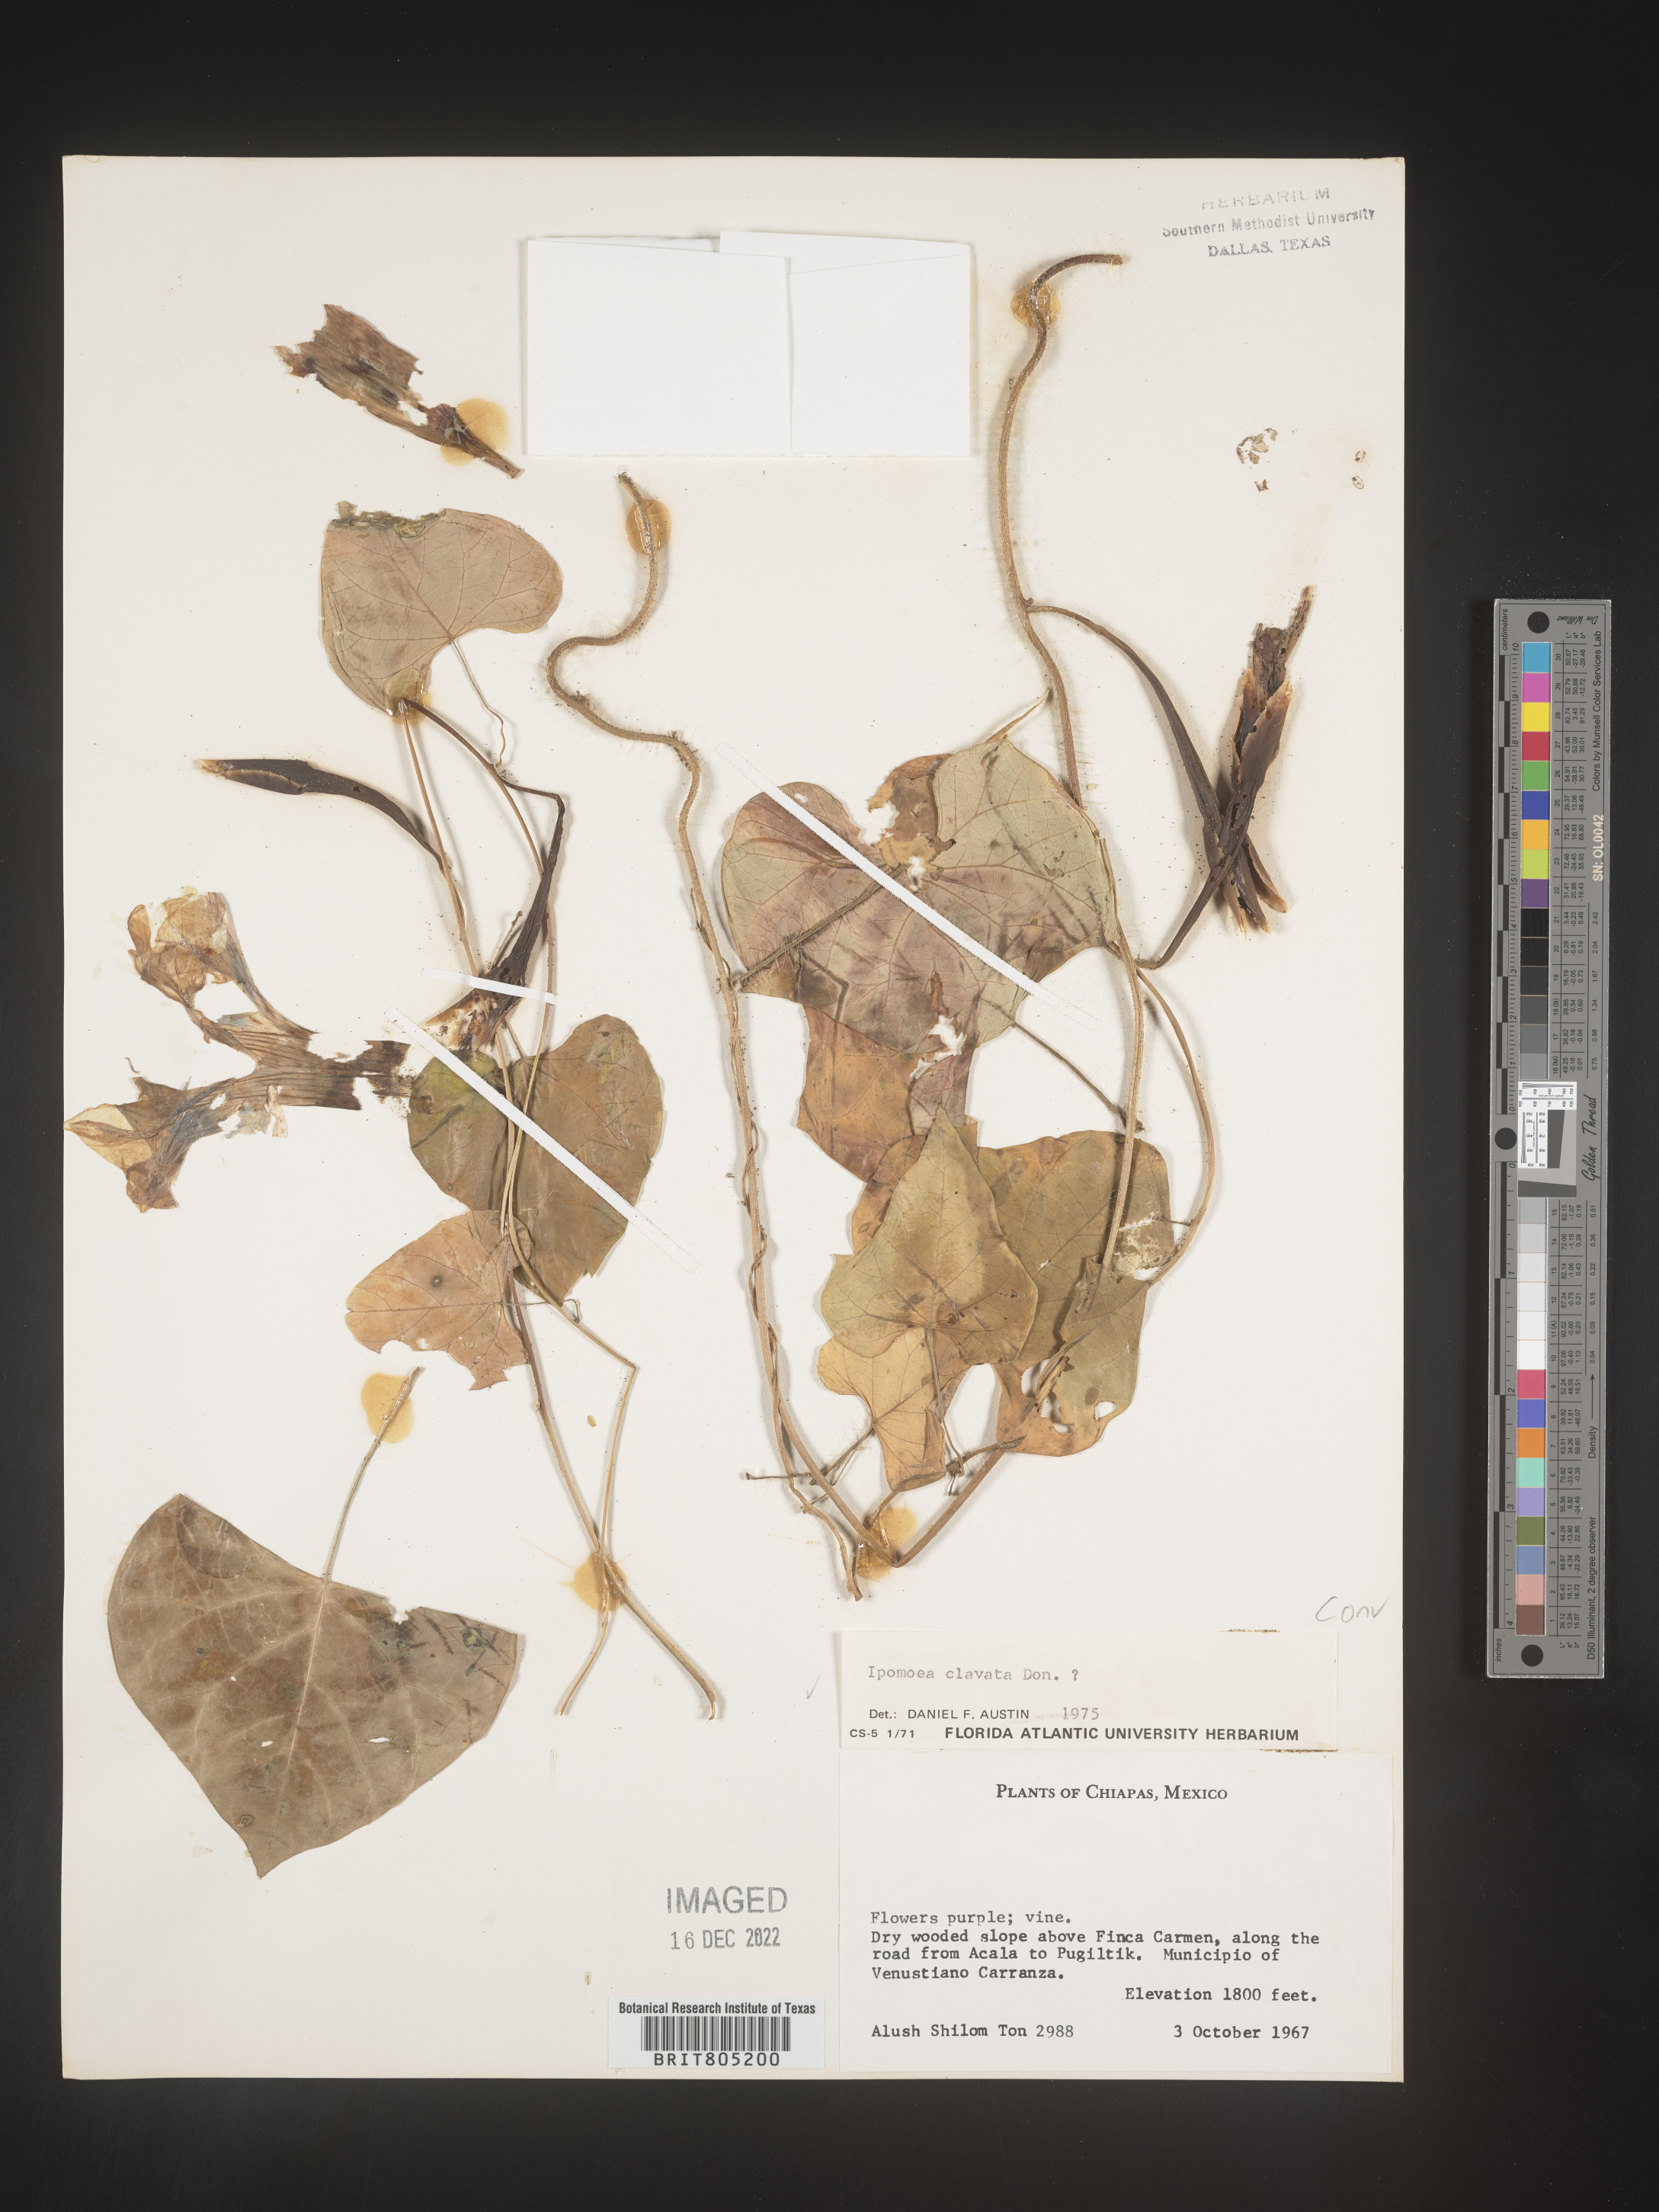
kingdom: Plantae
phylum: Tracheophyta
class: Magnoliopsida
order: Solanales
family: Convolvulaceae
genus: Ipomoea
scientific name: Ipomoea
